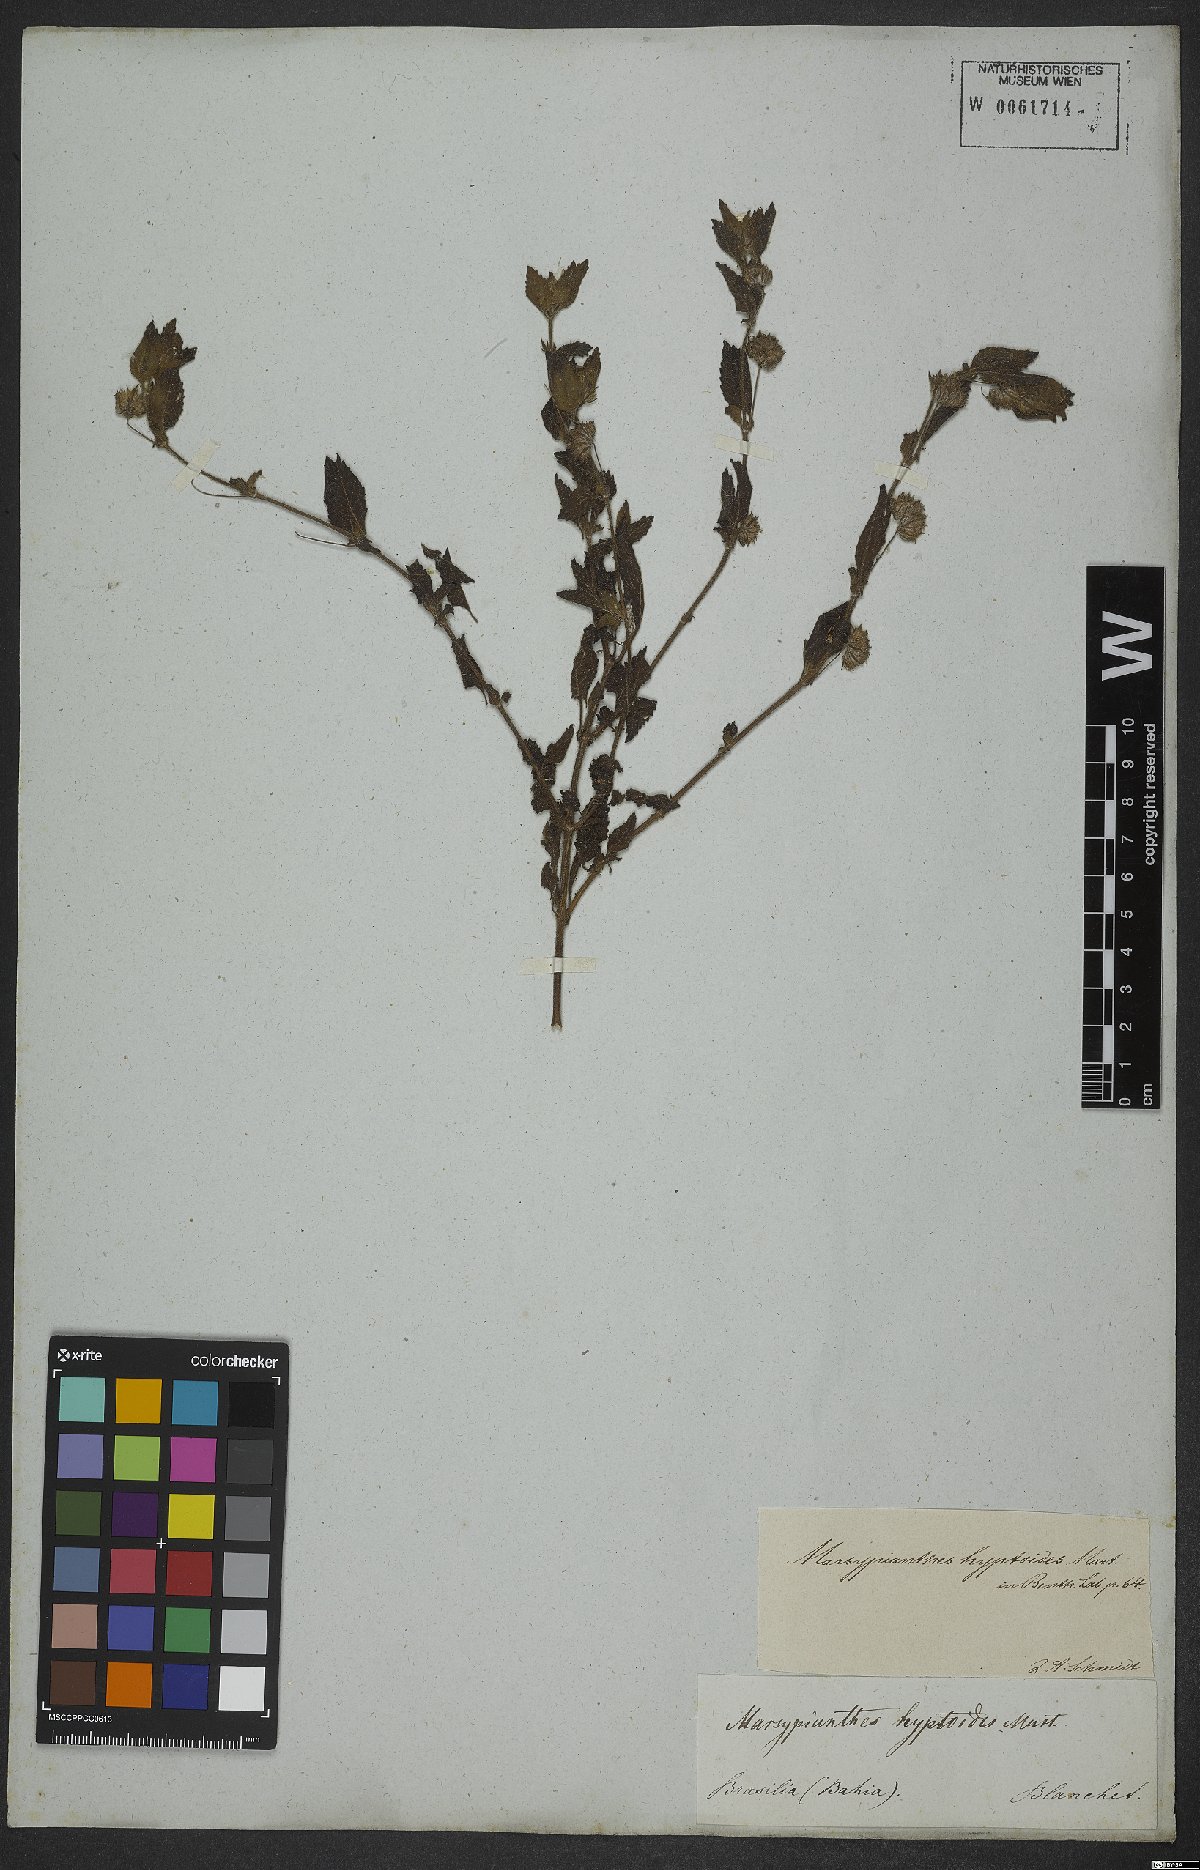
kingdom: Plantae
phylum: Tracheophyta
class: Magnoliopsida
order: Lamiales
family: Lamiaceae
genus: Marsypianthes
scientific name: Marsypianthes chamaedrys
